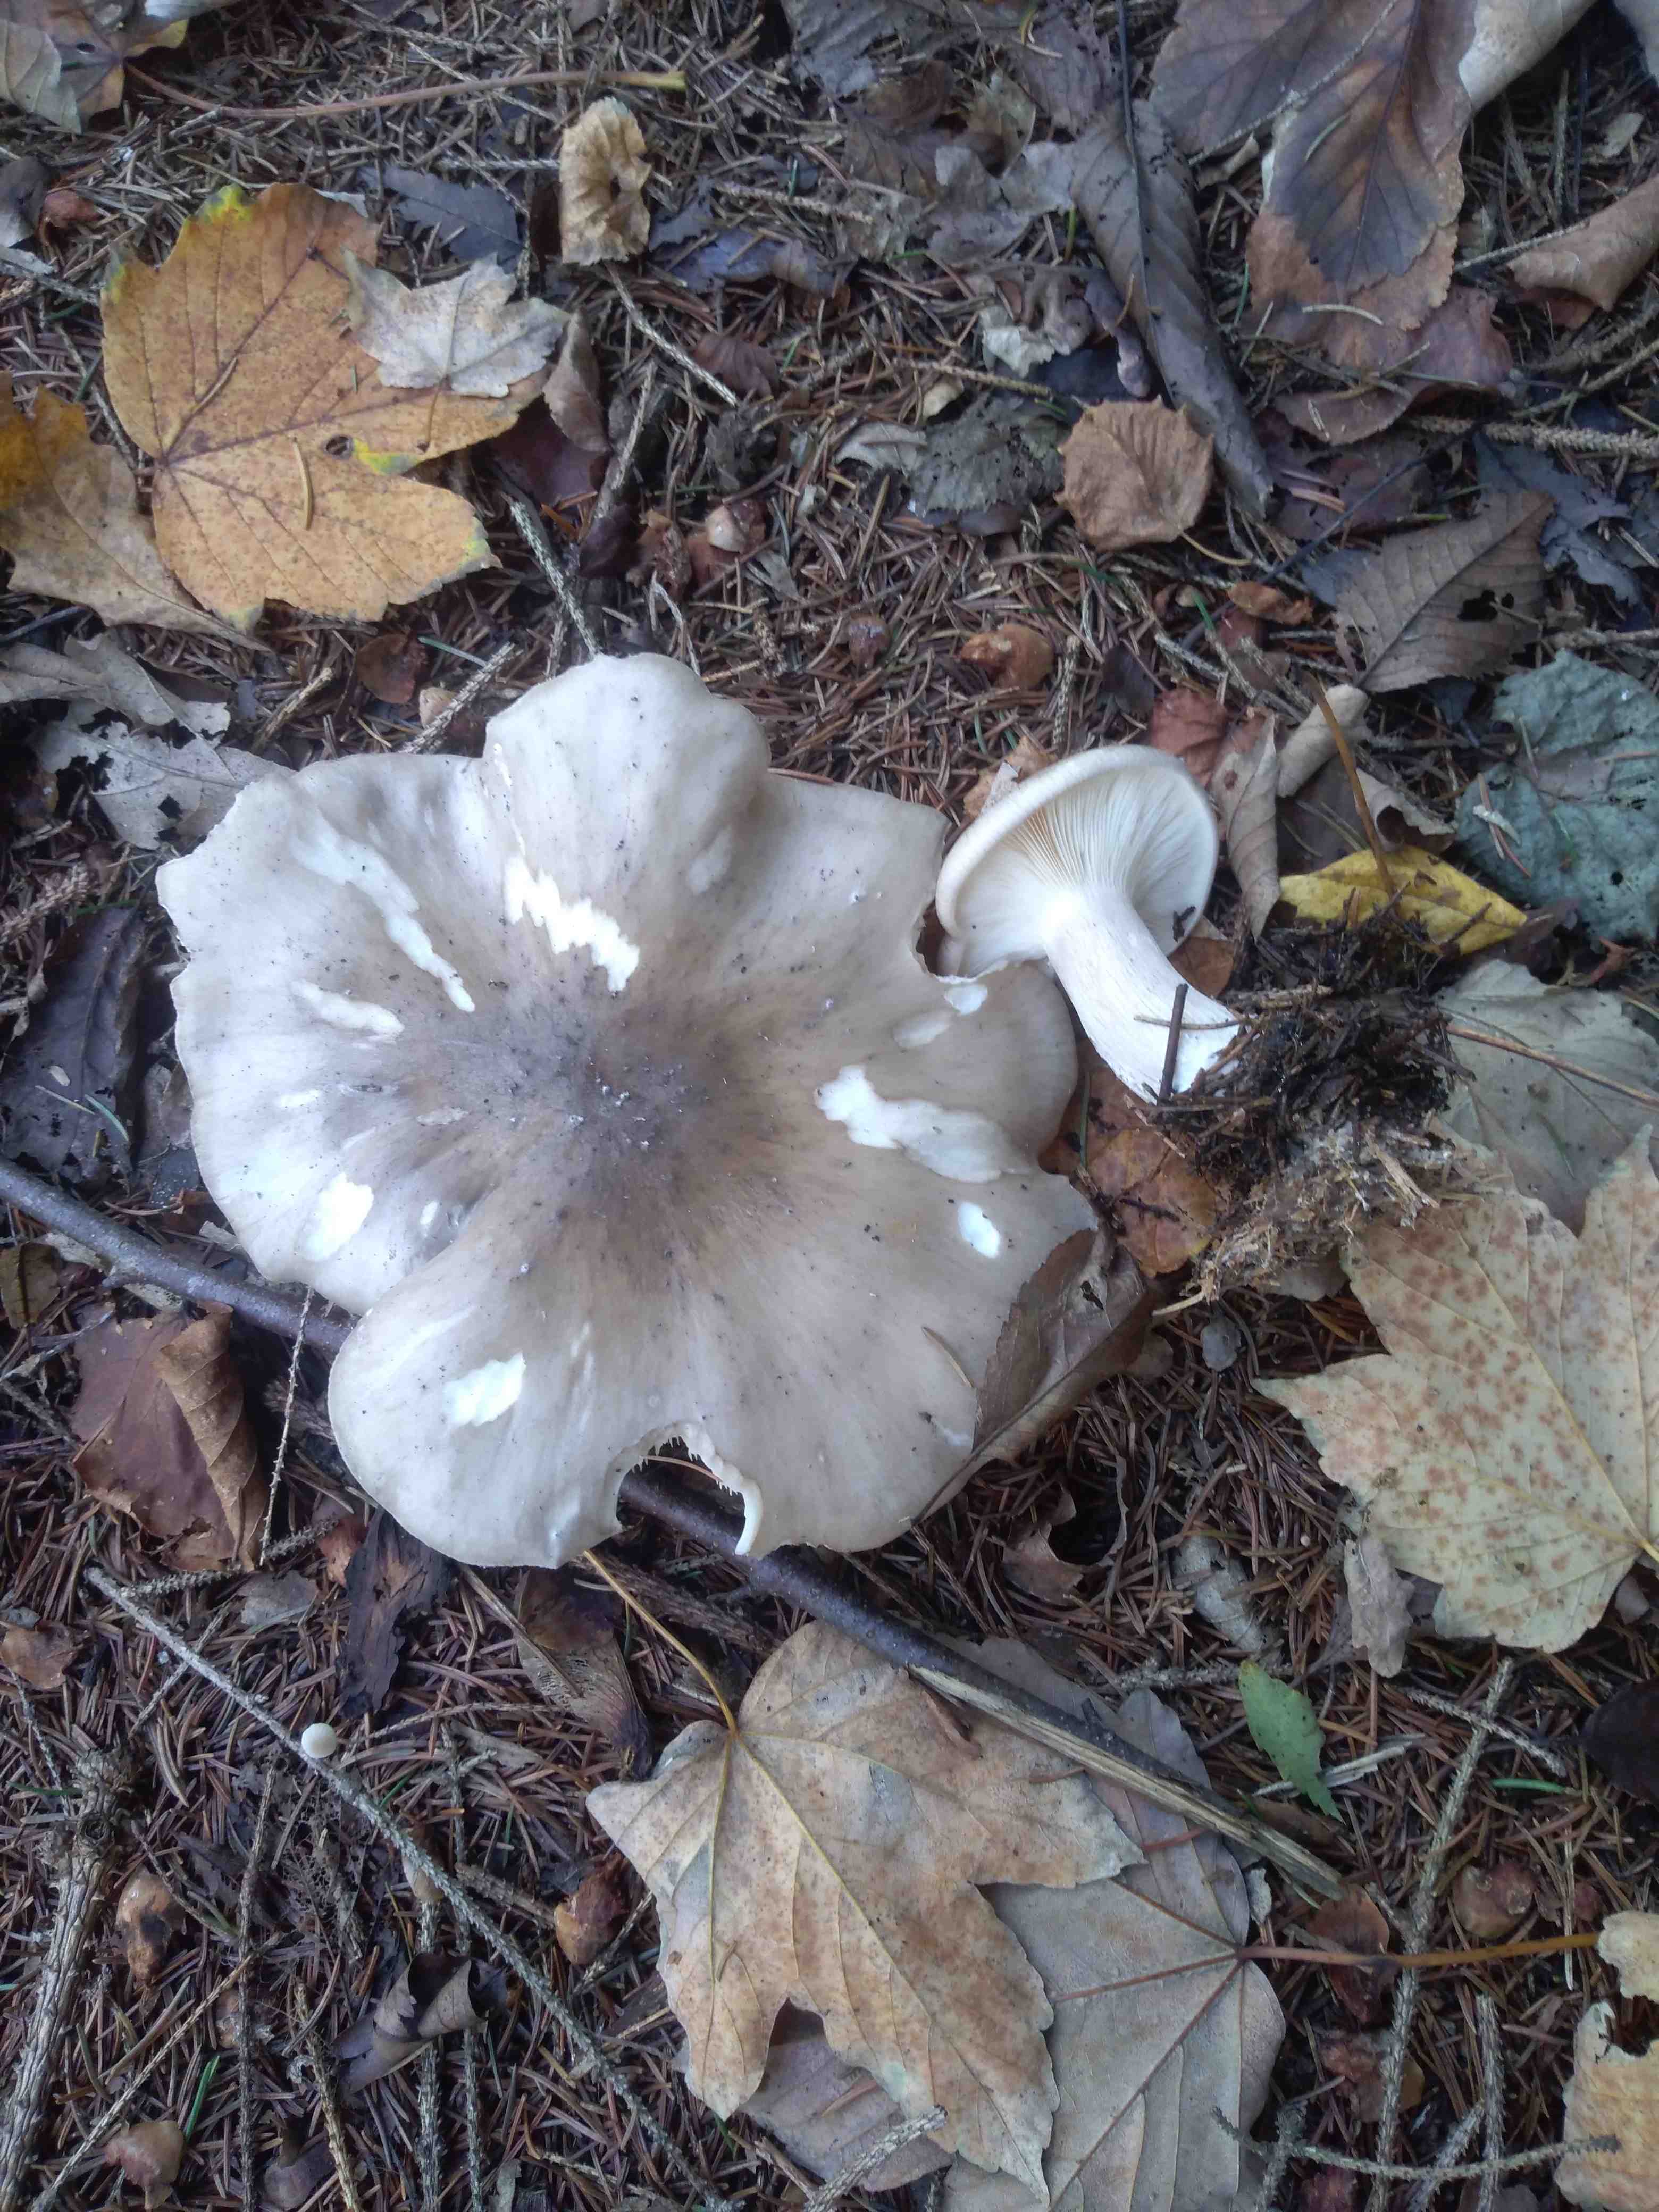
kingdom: Fungi
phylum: Basidiomycota
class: Agaricomycetes
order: Agaricales
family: Tricholomataceae
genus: Clitocybe
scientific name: Clitocybe nebularis
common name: tåge-tragthat
